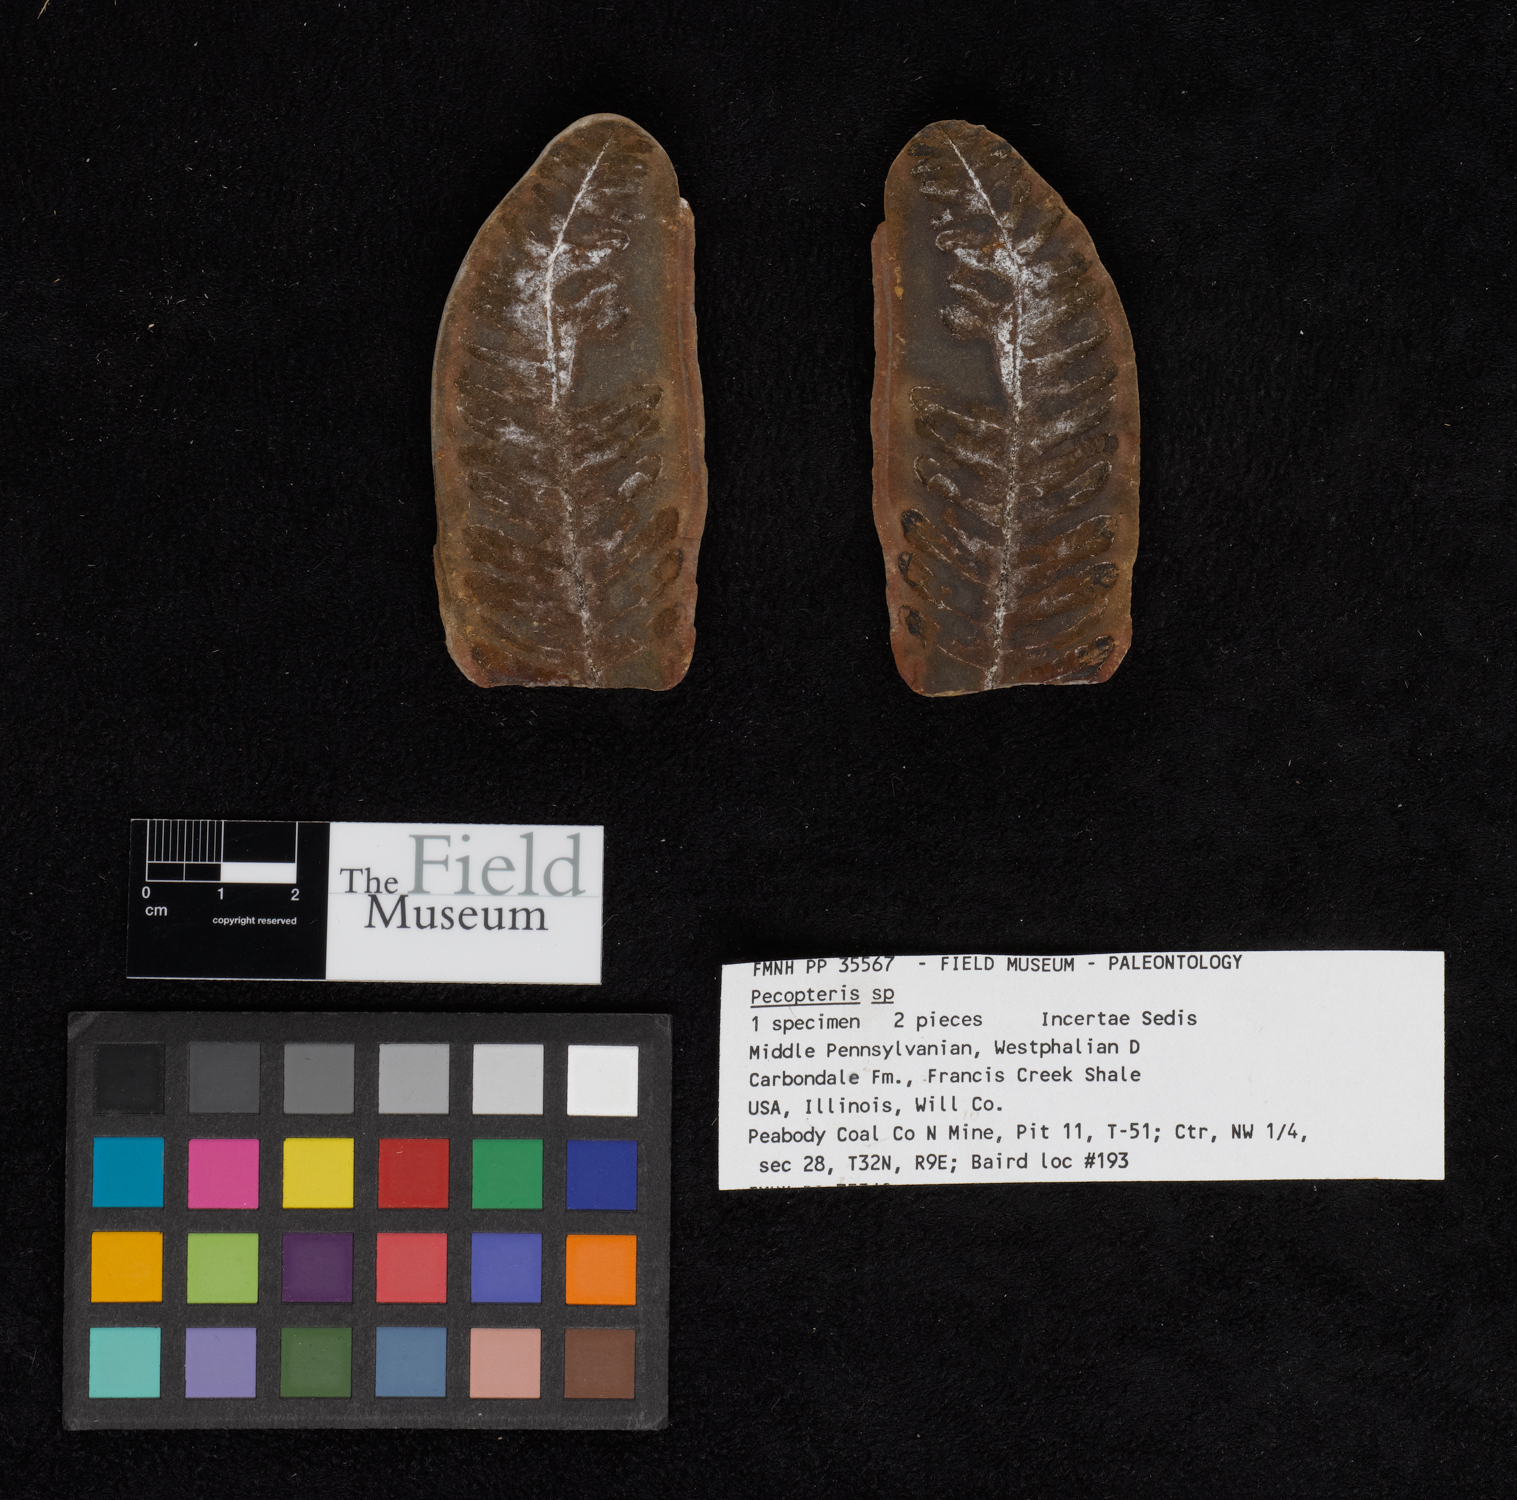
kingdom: Plantae
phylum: Tracheophyta
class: Polypodiopsida
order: Marattiales
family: Asterothecaceae
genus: Pecopteris
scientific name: Pecopteris
